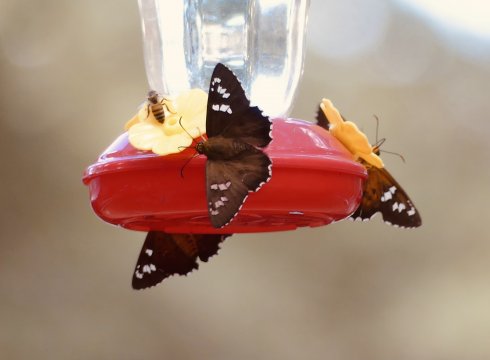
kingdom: Animalia
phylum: Arthropoda
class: Insecta
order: Lepidoptera
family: Hesperiidae
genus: Pyrrhopyge
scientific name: Pyrrhopyge araxes
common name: Dull Firetip
